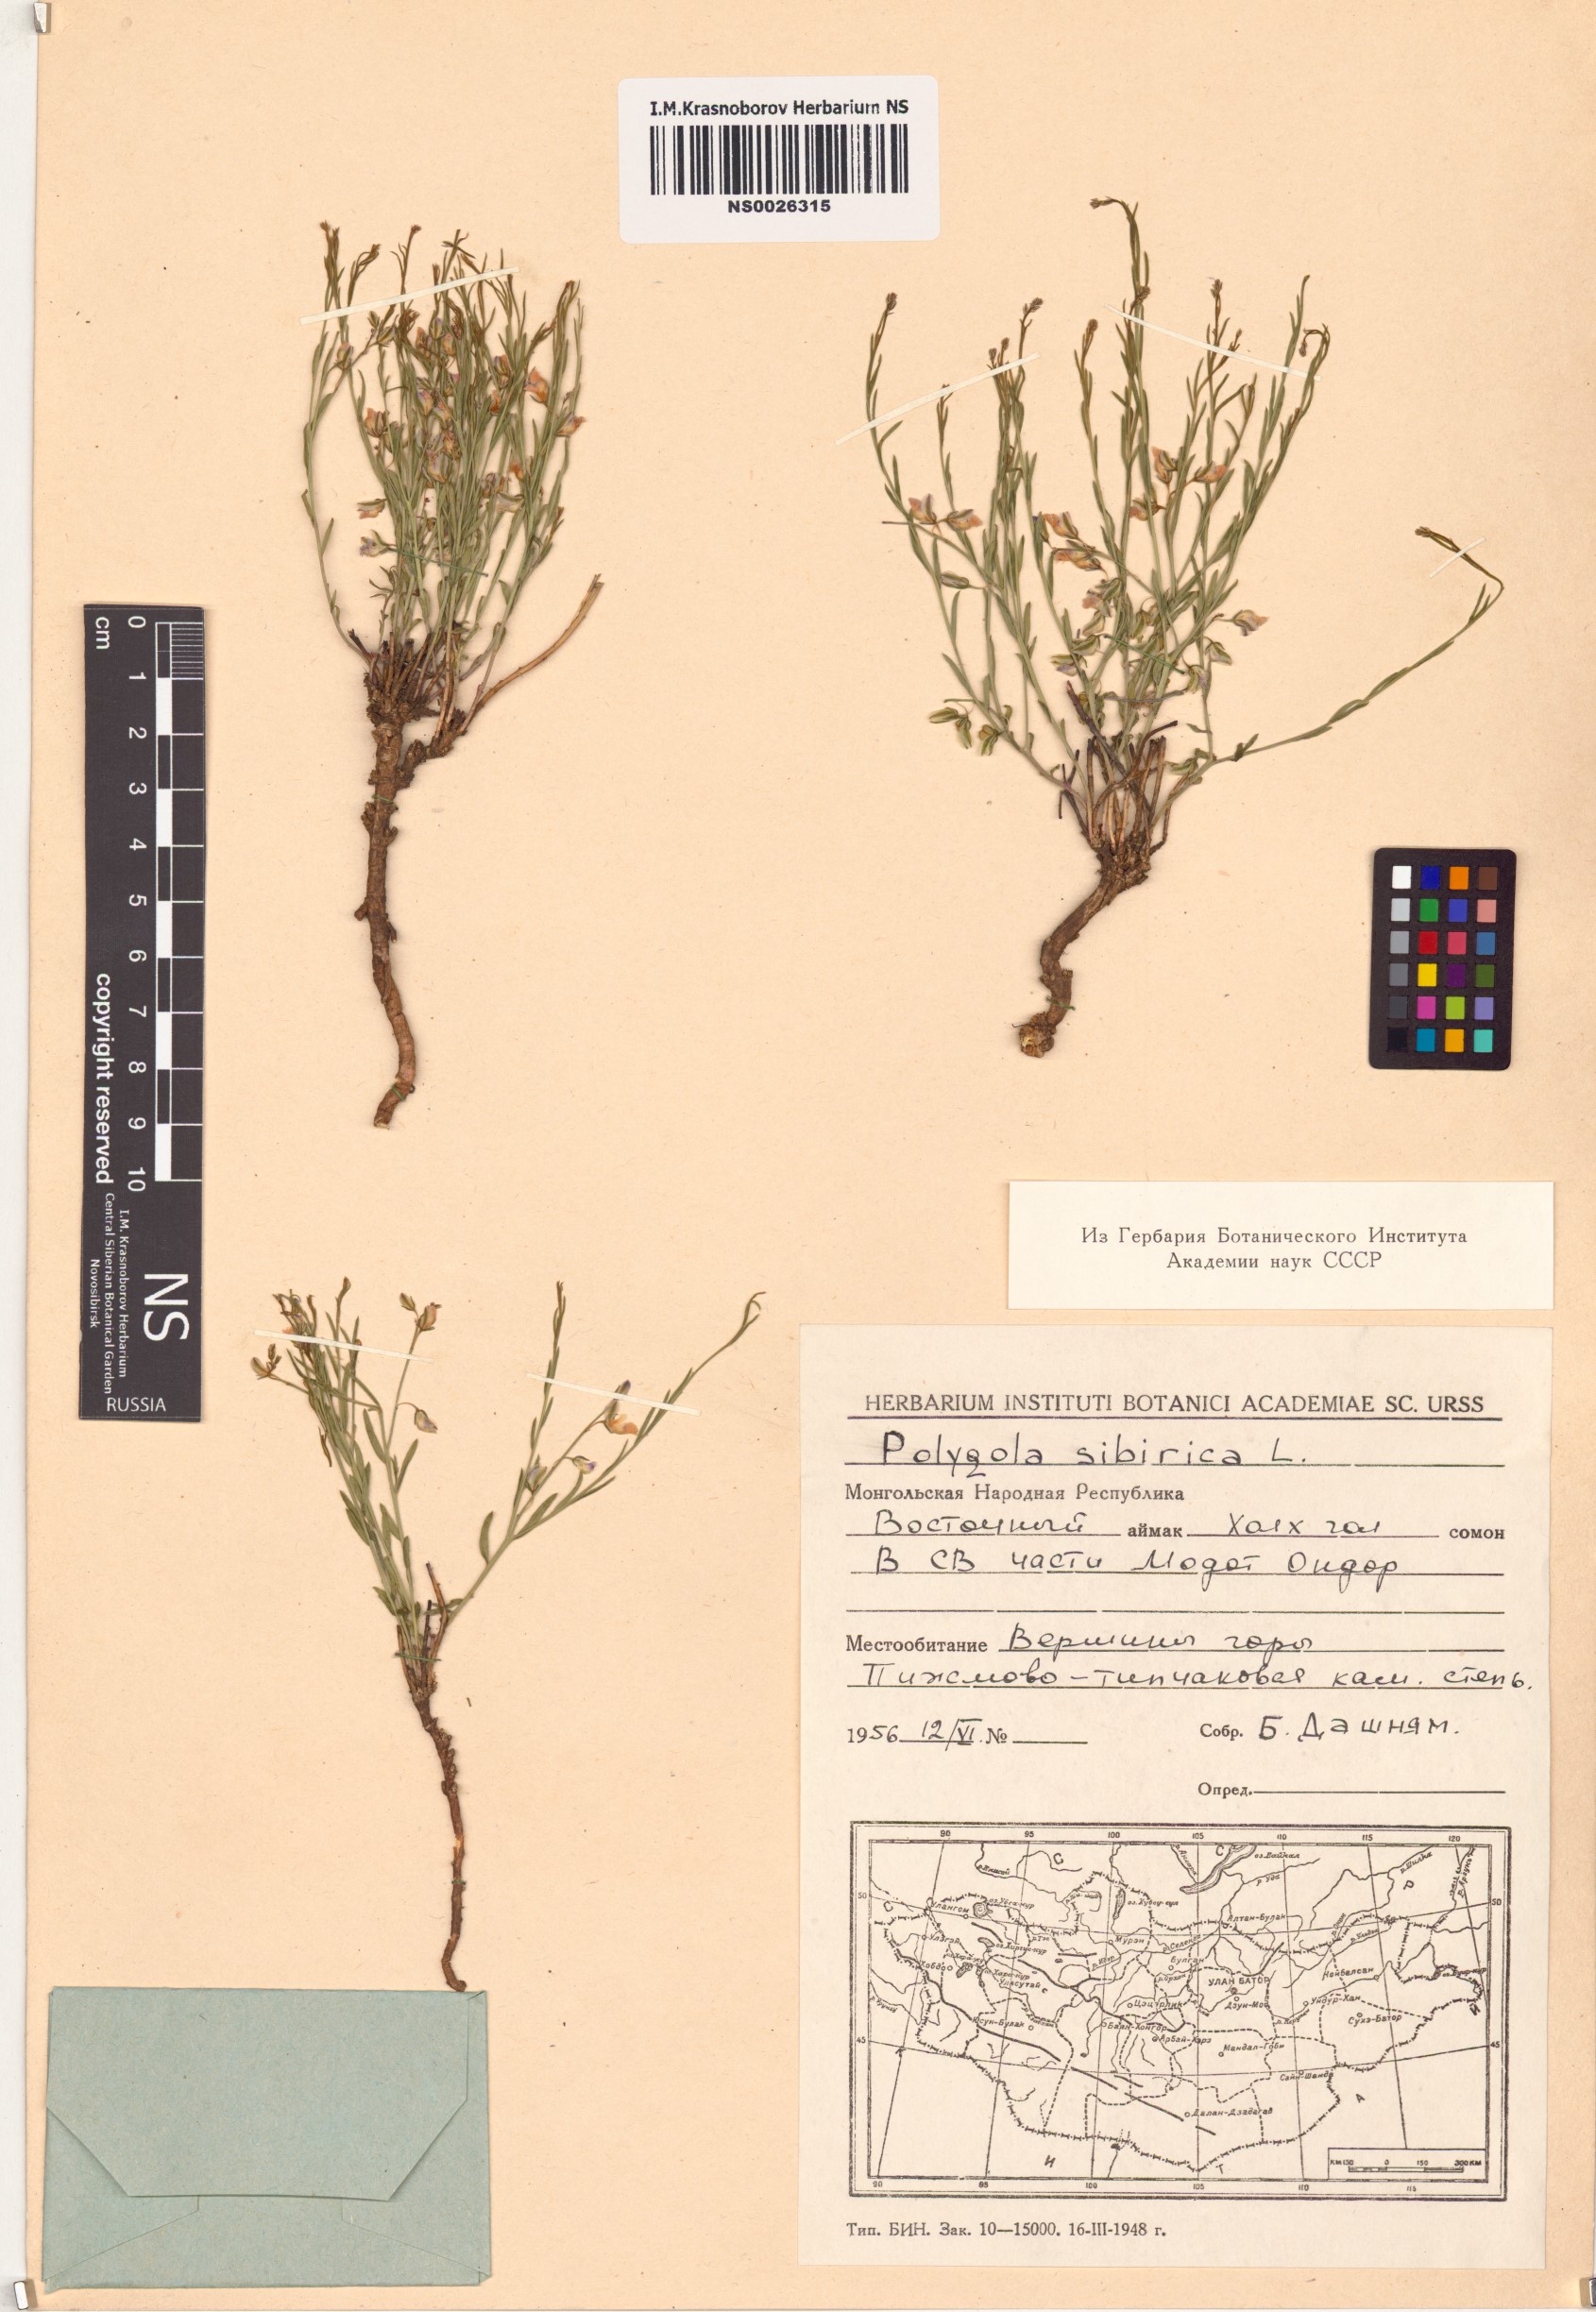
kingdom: Plantae
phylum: Tracheophyta
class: Magnoliopsida
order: Fabales
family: Polygalaceae
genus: Polygala
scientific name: Polygala sibirica
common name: Siberian polygala
